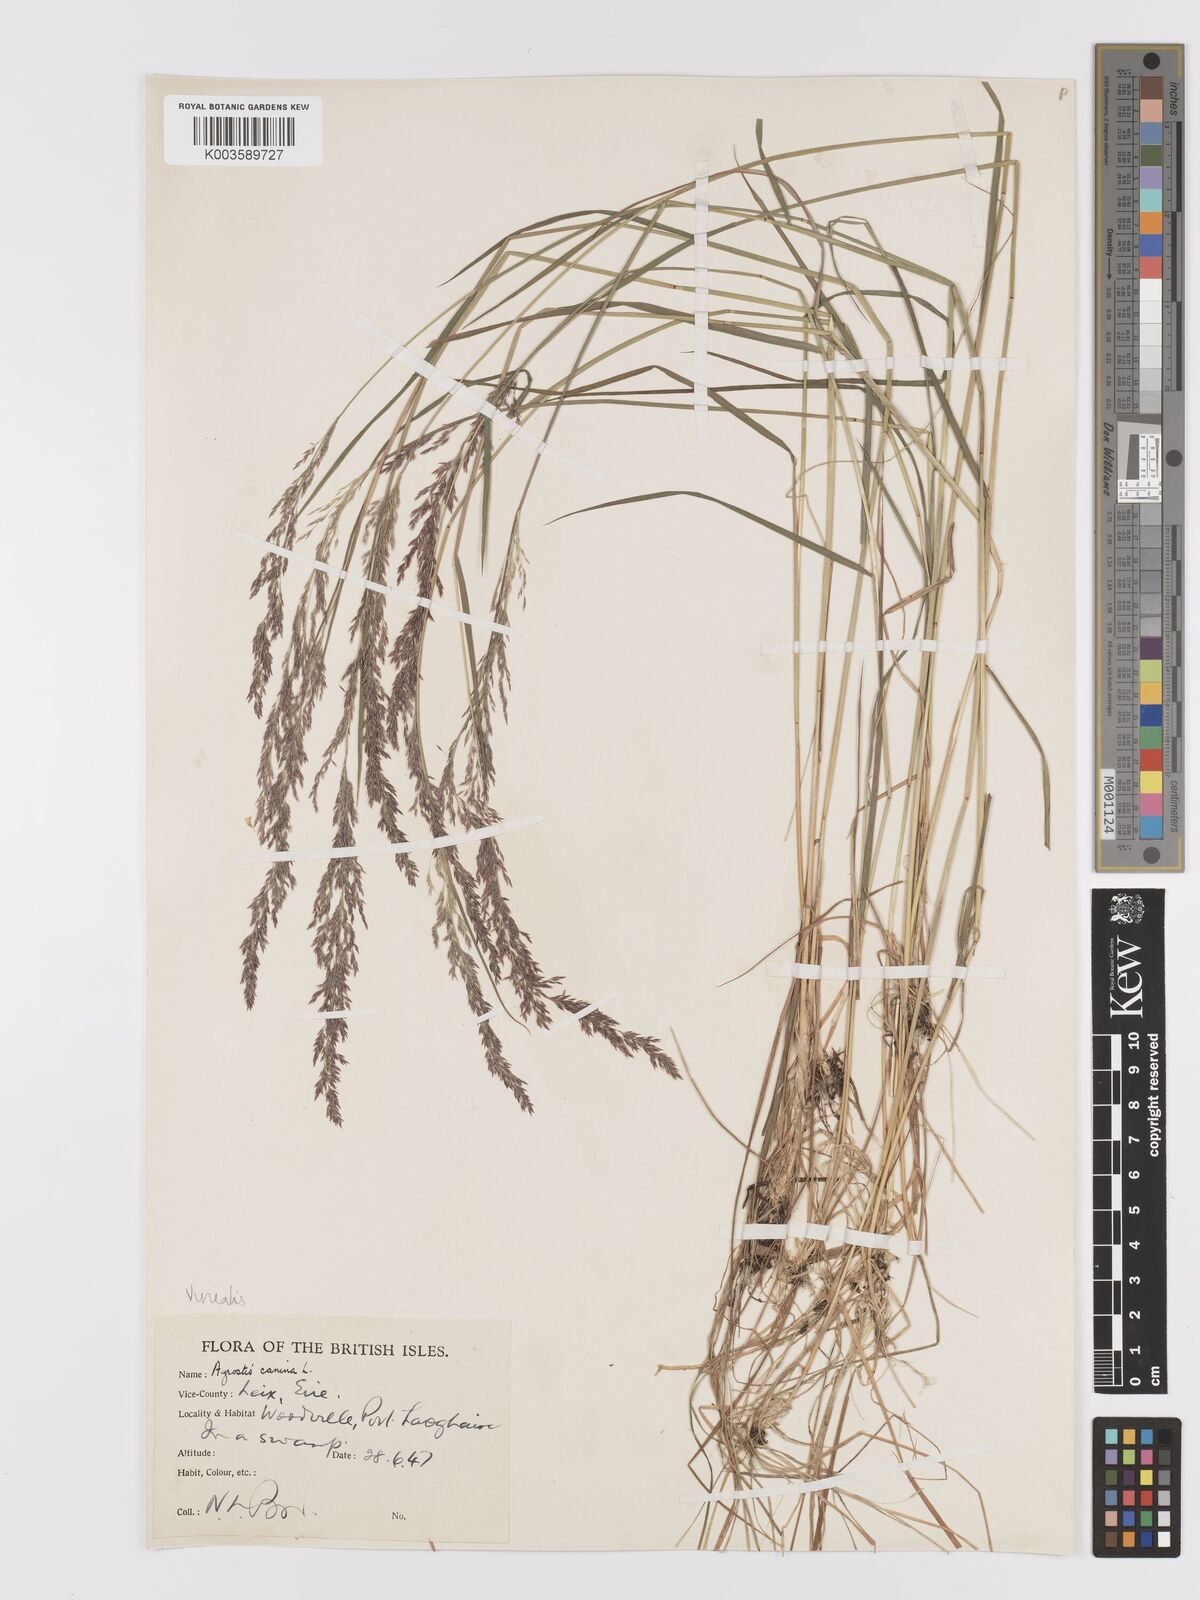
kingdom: Plantae
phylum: Tracheophyta
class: Liliopsida
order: Poales
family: Poaceae
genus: Agrostis
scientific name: Agrostis
